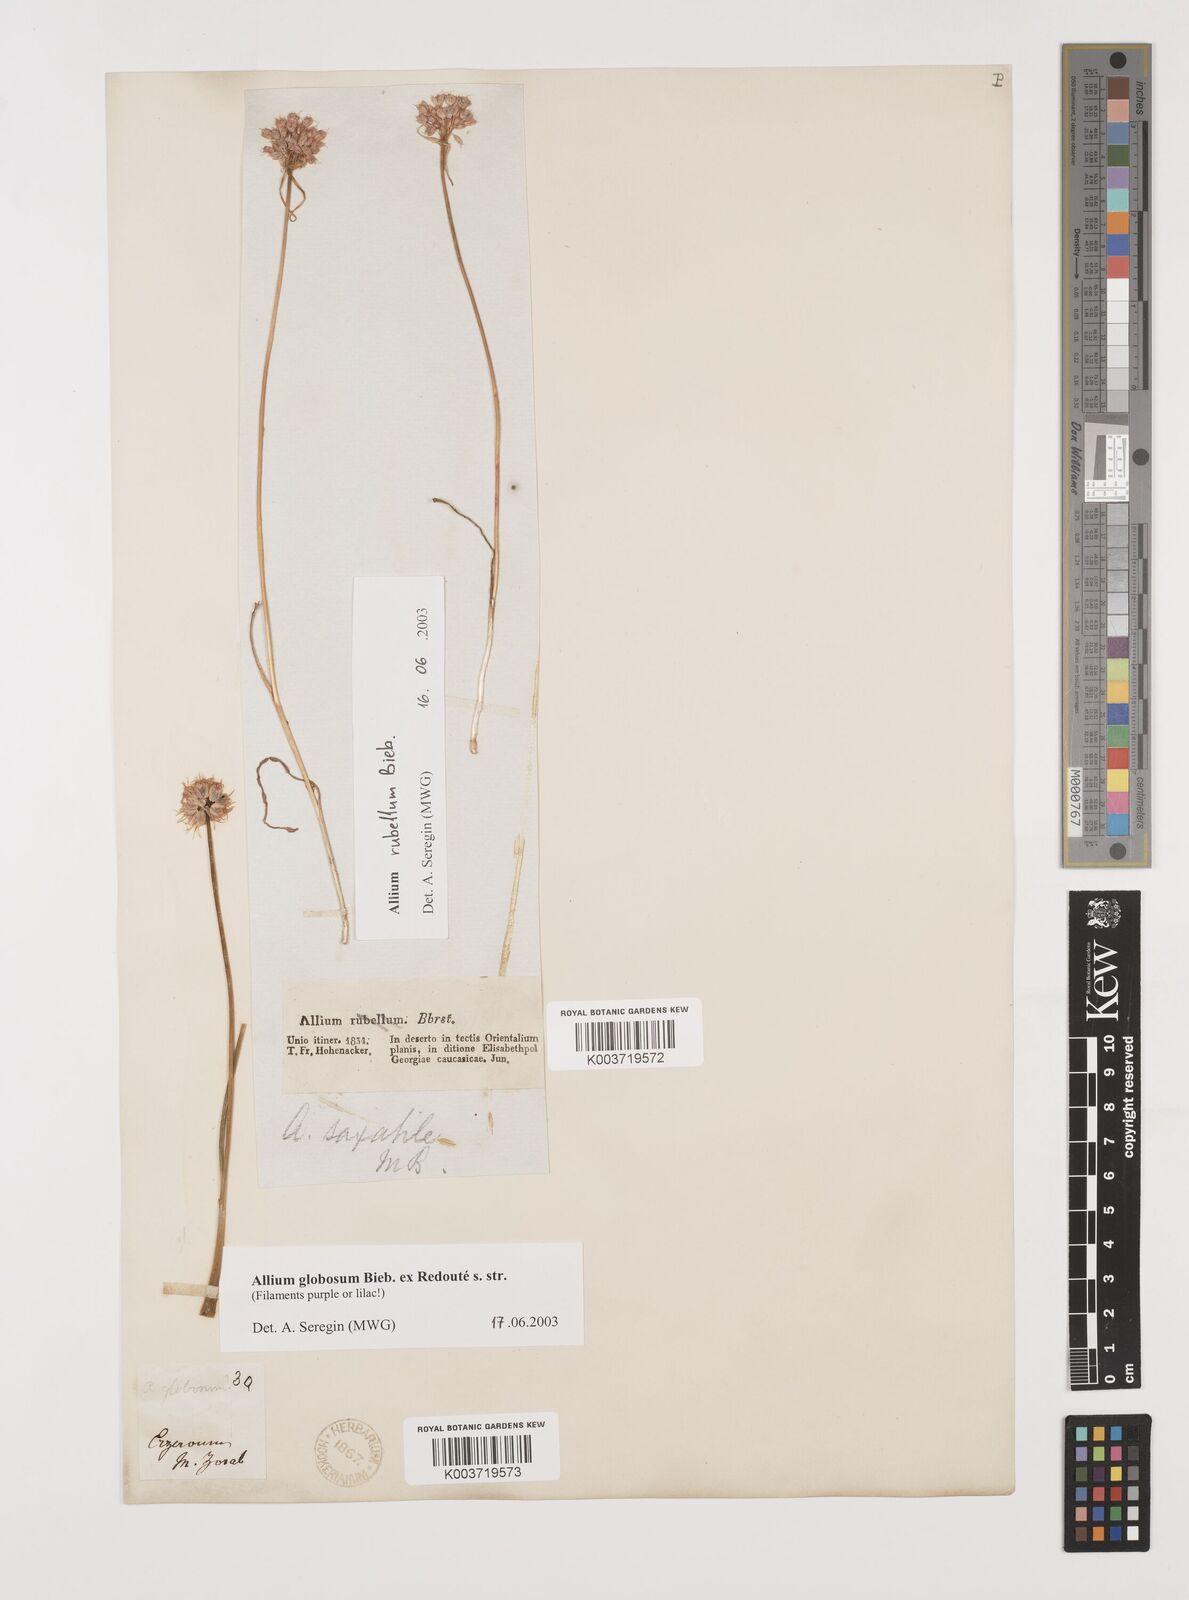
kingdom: Plantae
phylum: Tracheophyta
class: Liliopsida
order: Asparagales
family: Amaryllidaceae
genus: Allium
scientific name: Allium saxatile
